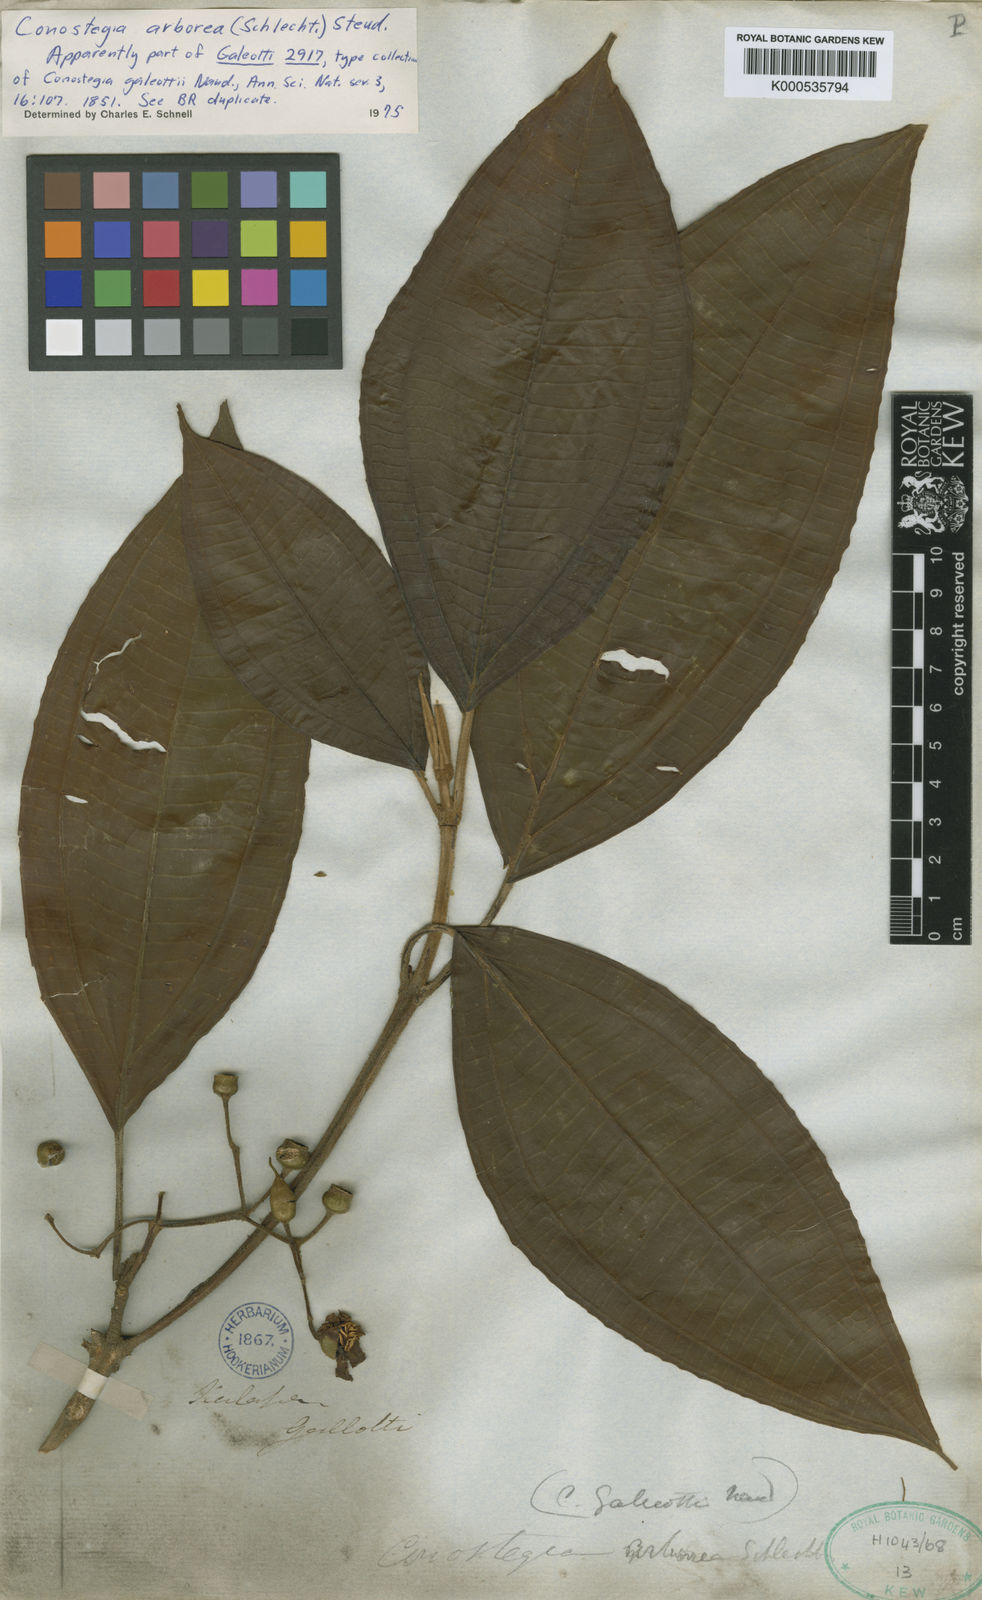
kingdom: Plantae
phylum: Tracheophyta
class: Magnoliopsida
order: Myrtales
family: Melastomataceae
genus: Miconia
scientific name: Miconia galeottii
